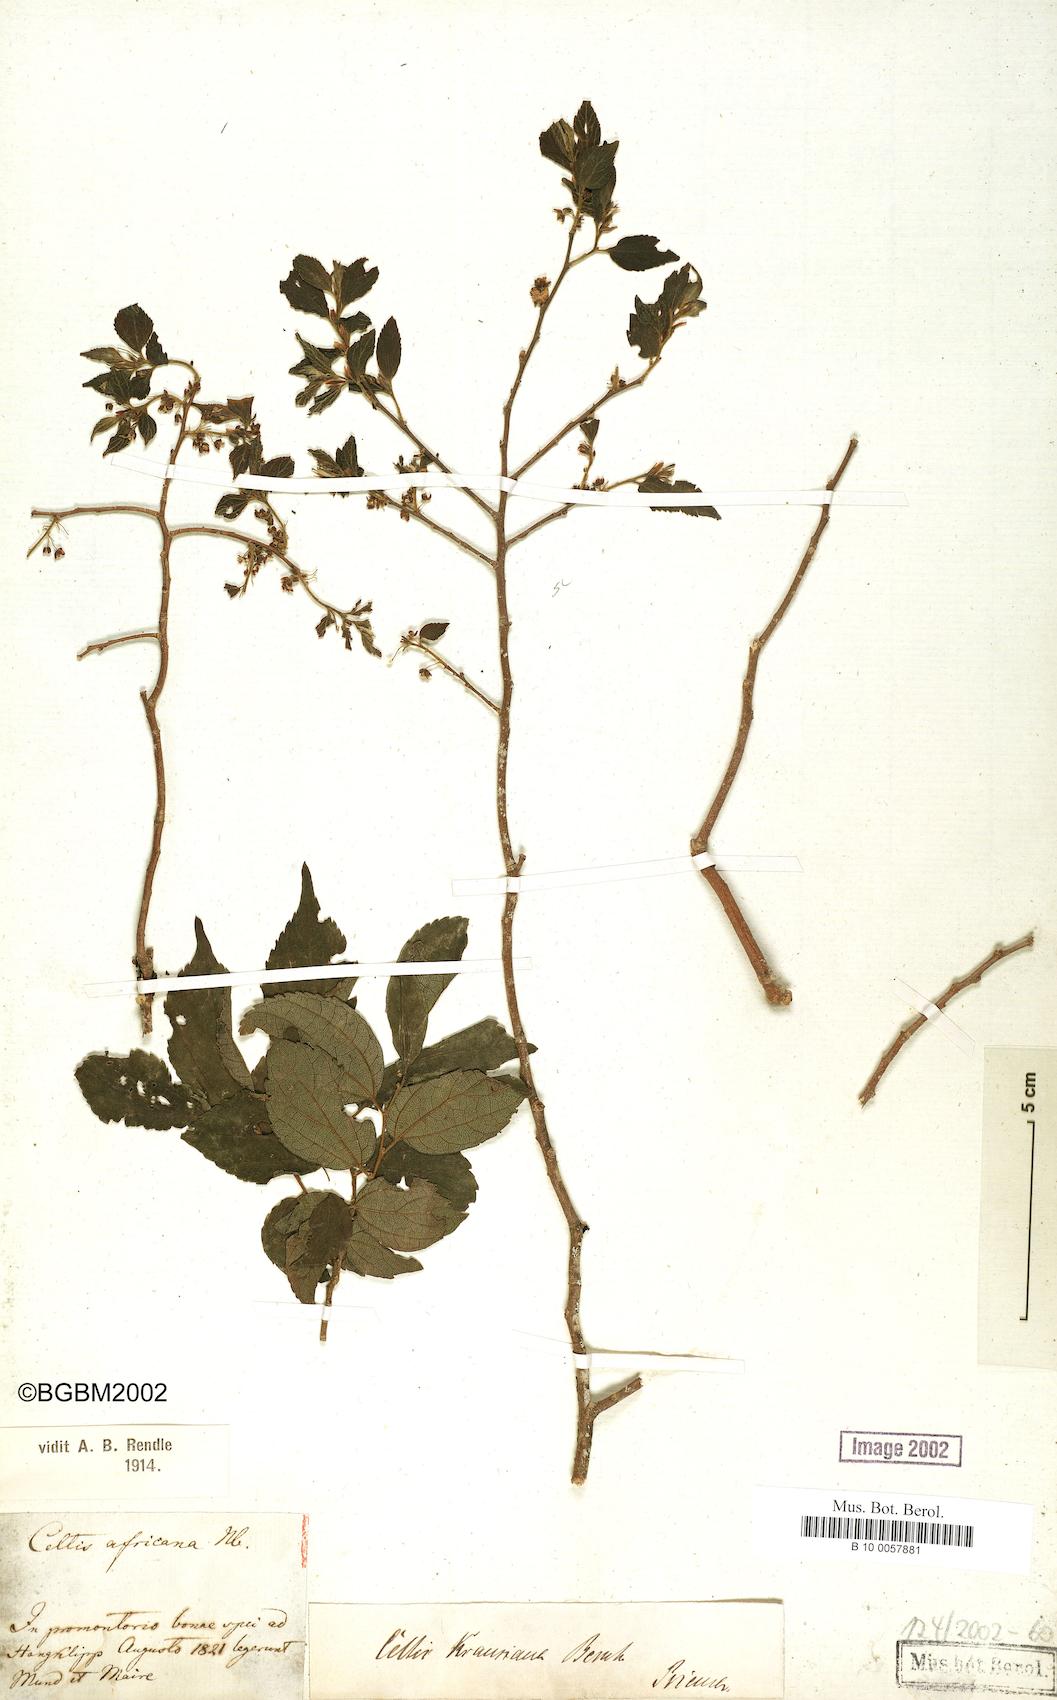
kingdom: Plantae
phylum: Tracheophyta
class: Magnoliopsida
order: Rosales
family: Cannabaceae
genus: Celtis
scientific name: Celtis africana
